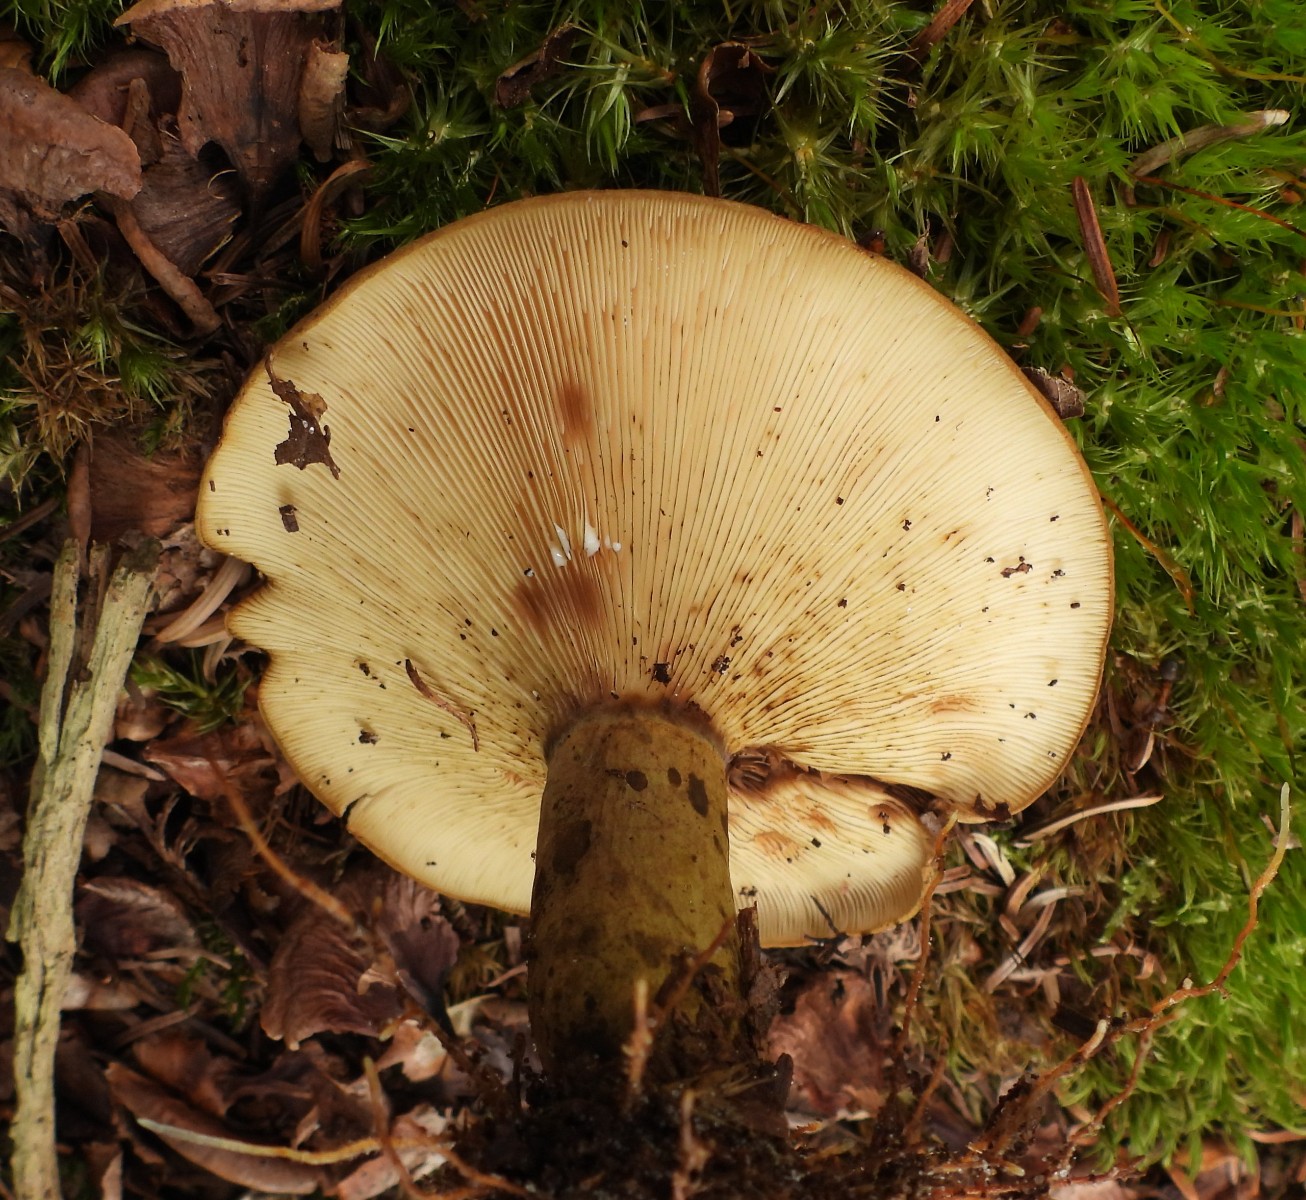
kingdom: Fungi
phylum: Basidiomycota
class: Agaricomycetes
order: Russulales
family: Russulaceae
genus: Lactarius
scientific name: Lactarius necator
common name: manddraber-mælkehat
